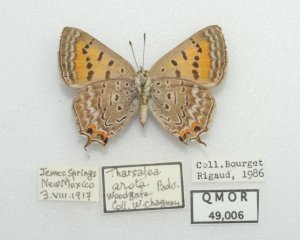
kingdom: Animalia
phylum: Arthropoda
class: Insecta
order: Lepidoptera
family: Sesiidae
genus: Sesia
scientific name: Sesia Lycaena arota
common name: Tailed Copper
